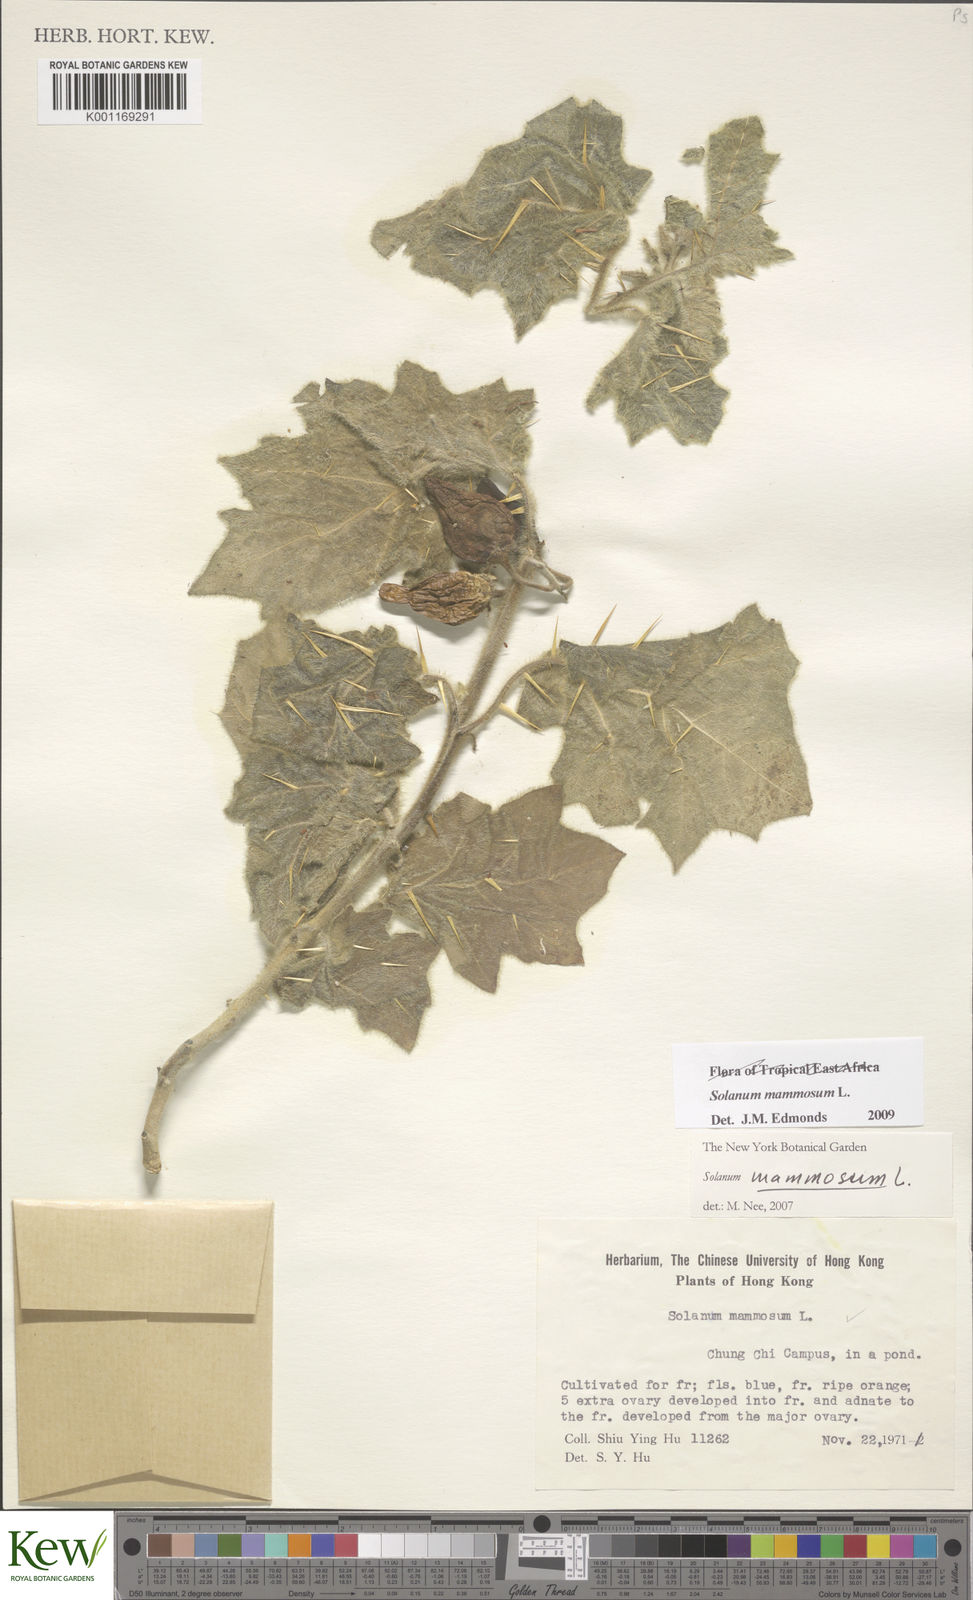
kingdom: Plantae
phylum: Tracheophyta
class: Magnoliopsida
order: Solanales
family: Solanaceae
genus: Solanum
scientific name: Solanum mammosum
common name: Nipple fruit
